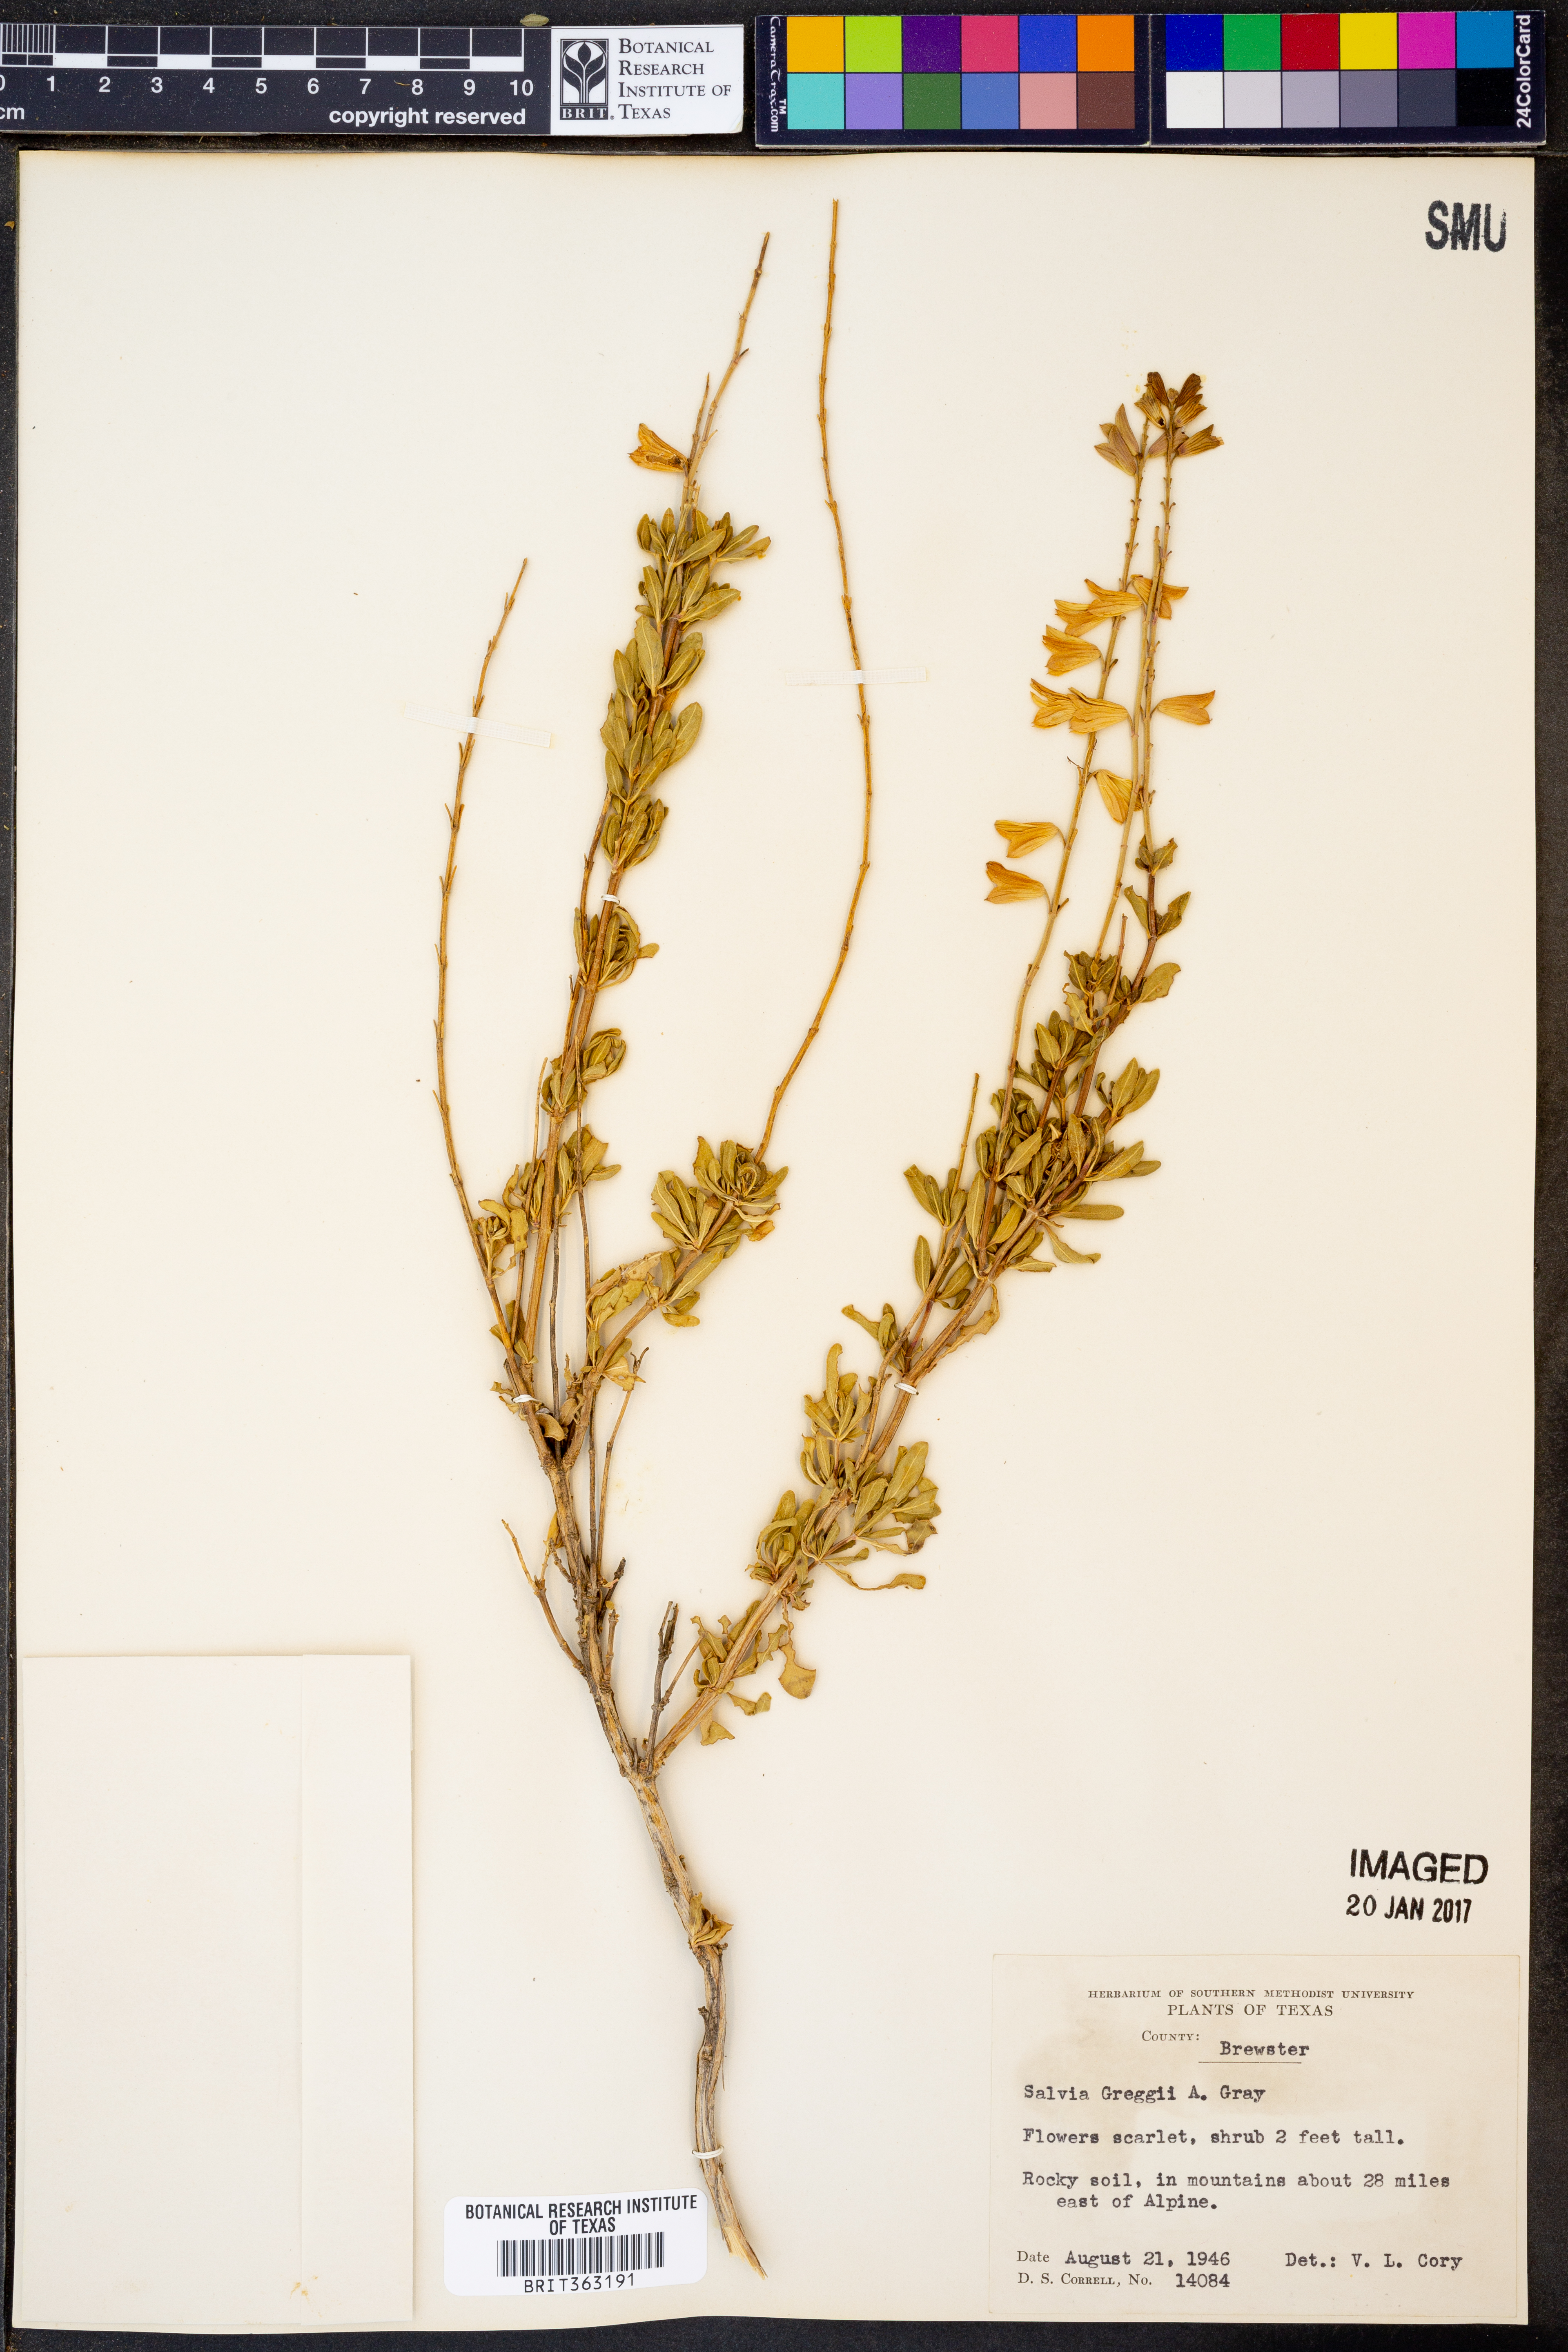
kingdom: Plantae
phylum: Tracheophyta
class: Magnoliopsida
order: Lamiales
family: Lamiaceae
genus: Salvia
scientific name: Salvia greggii
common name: Autumn sage
